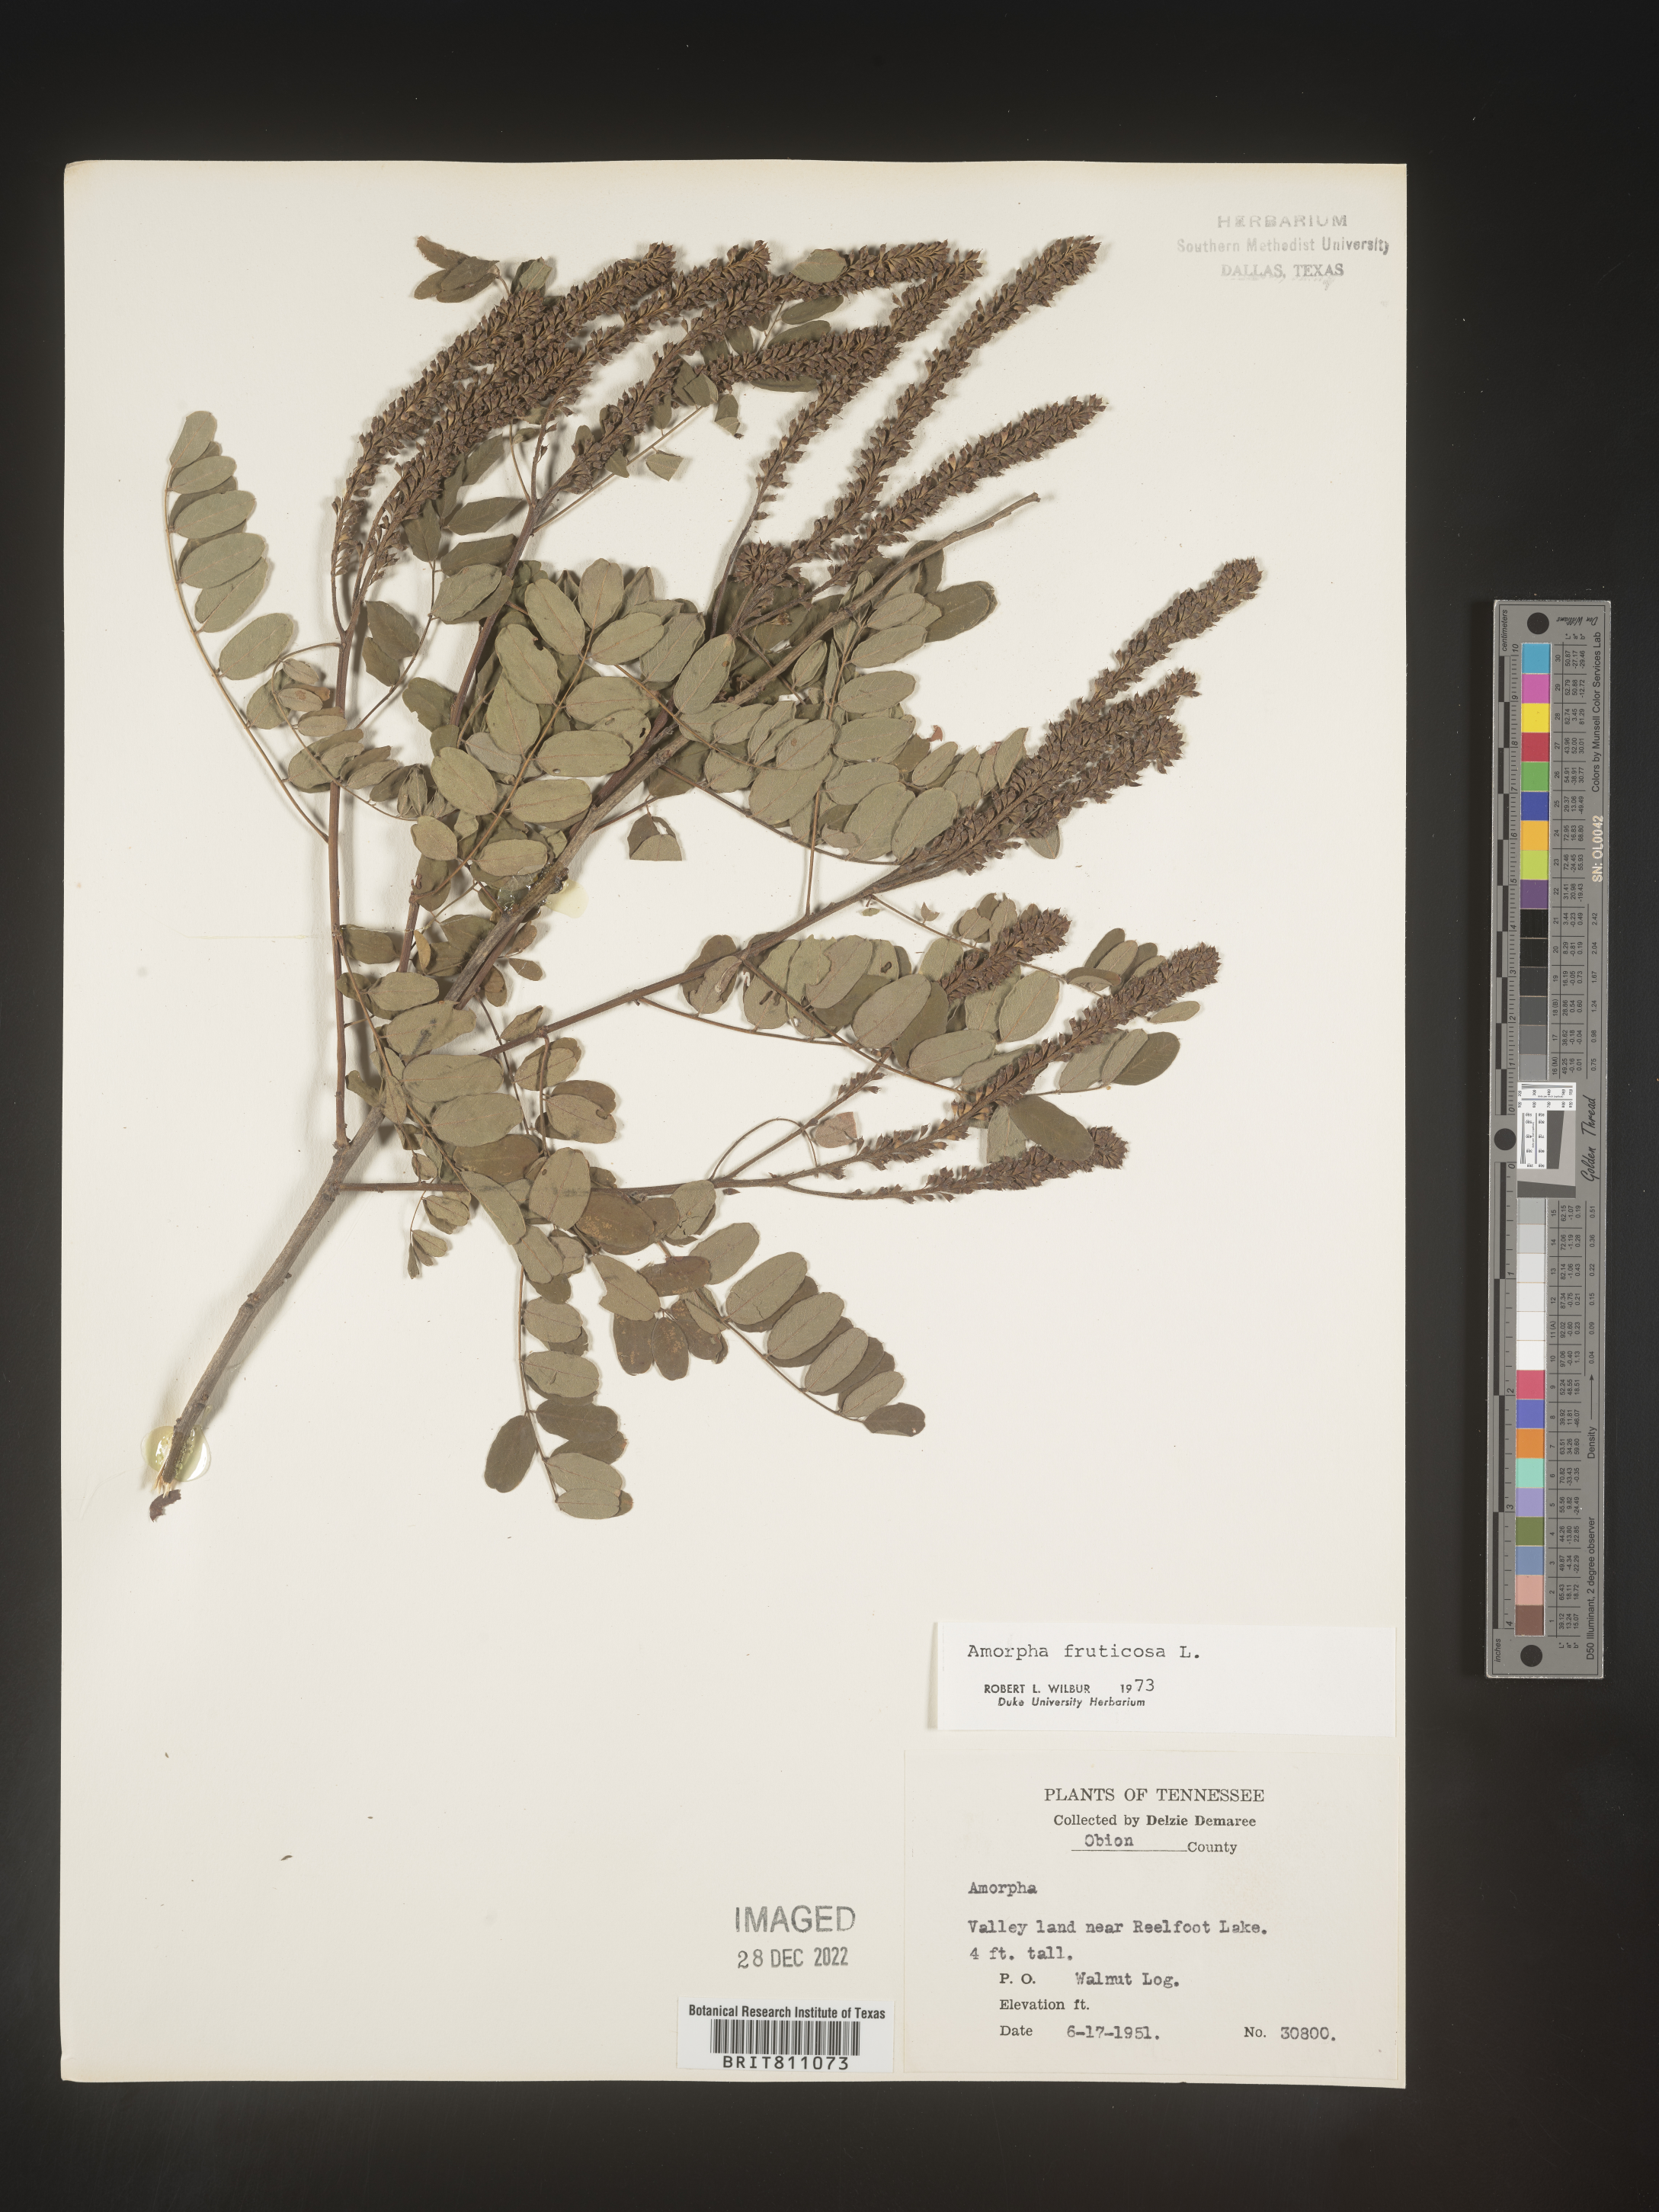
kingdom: Plantae
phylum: Tracheophyta
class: Magnoliopsida
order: Fabales
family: Fabaceae
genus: Amorpha
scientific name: Amorpha fruticosa
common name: False indigo
